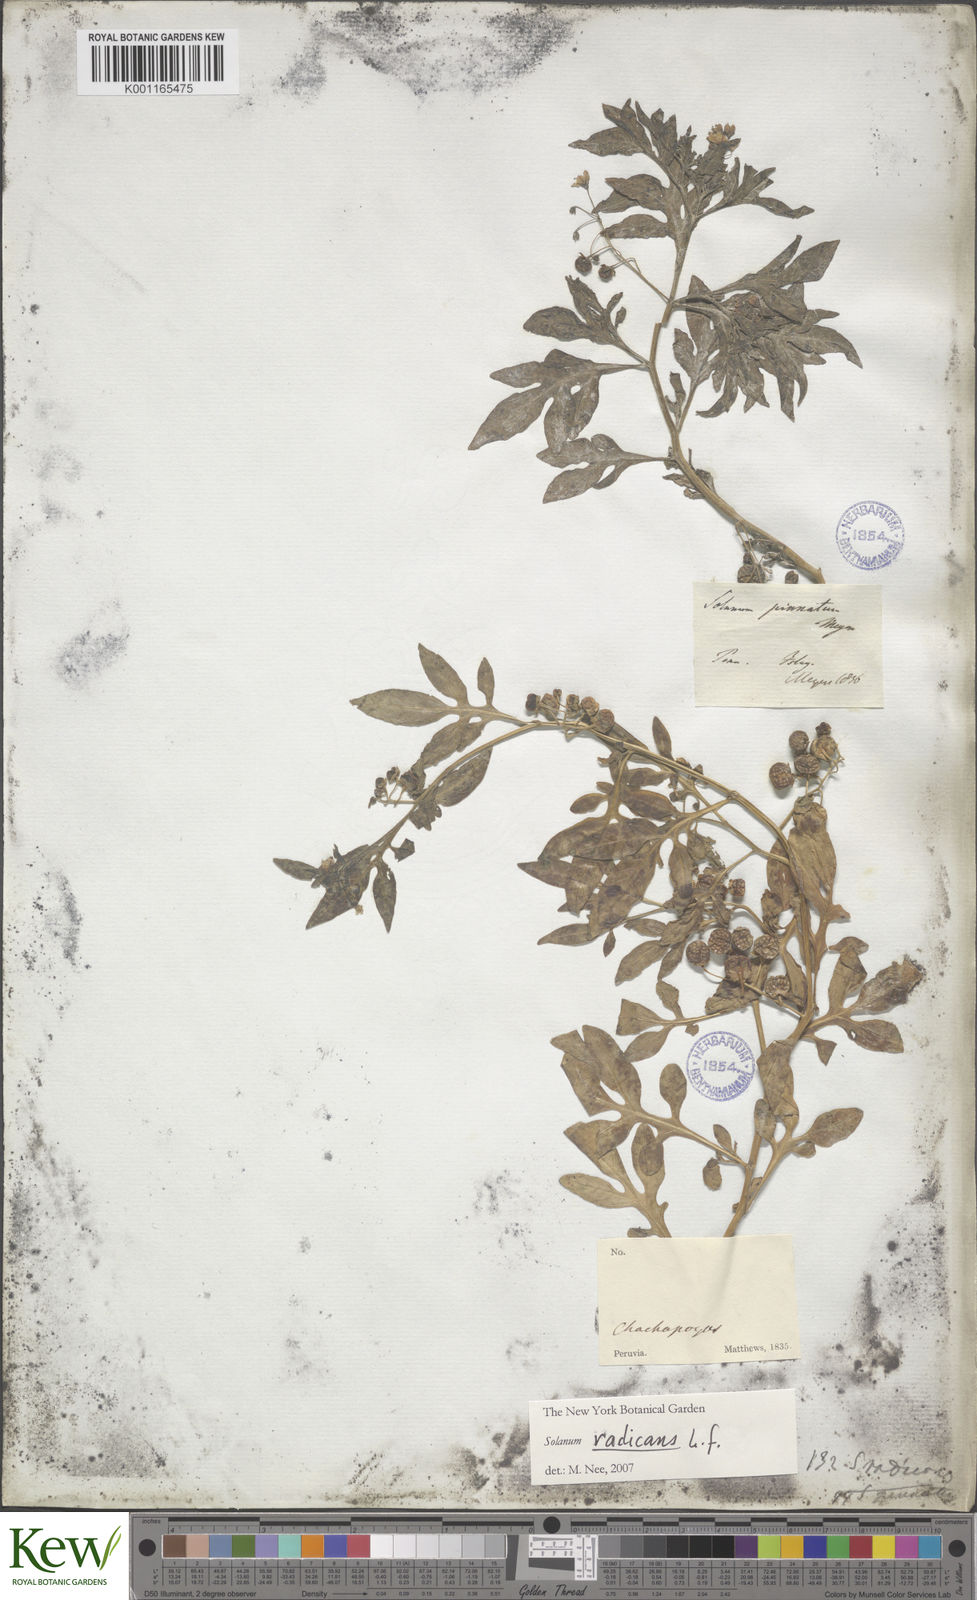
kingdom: Plantae
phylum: Tracheophyta
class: Magnoliopsida
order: Solanales
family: Solanaceae
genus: Solanum
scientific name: Solanum radicans
